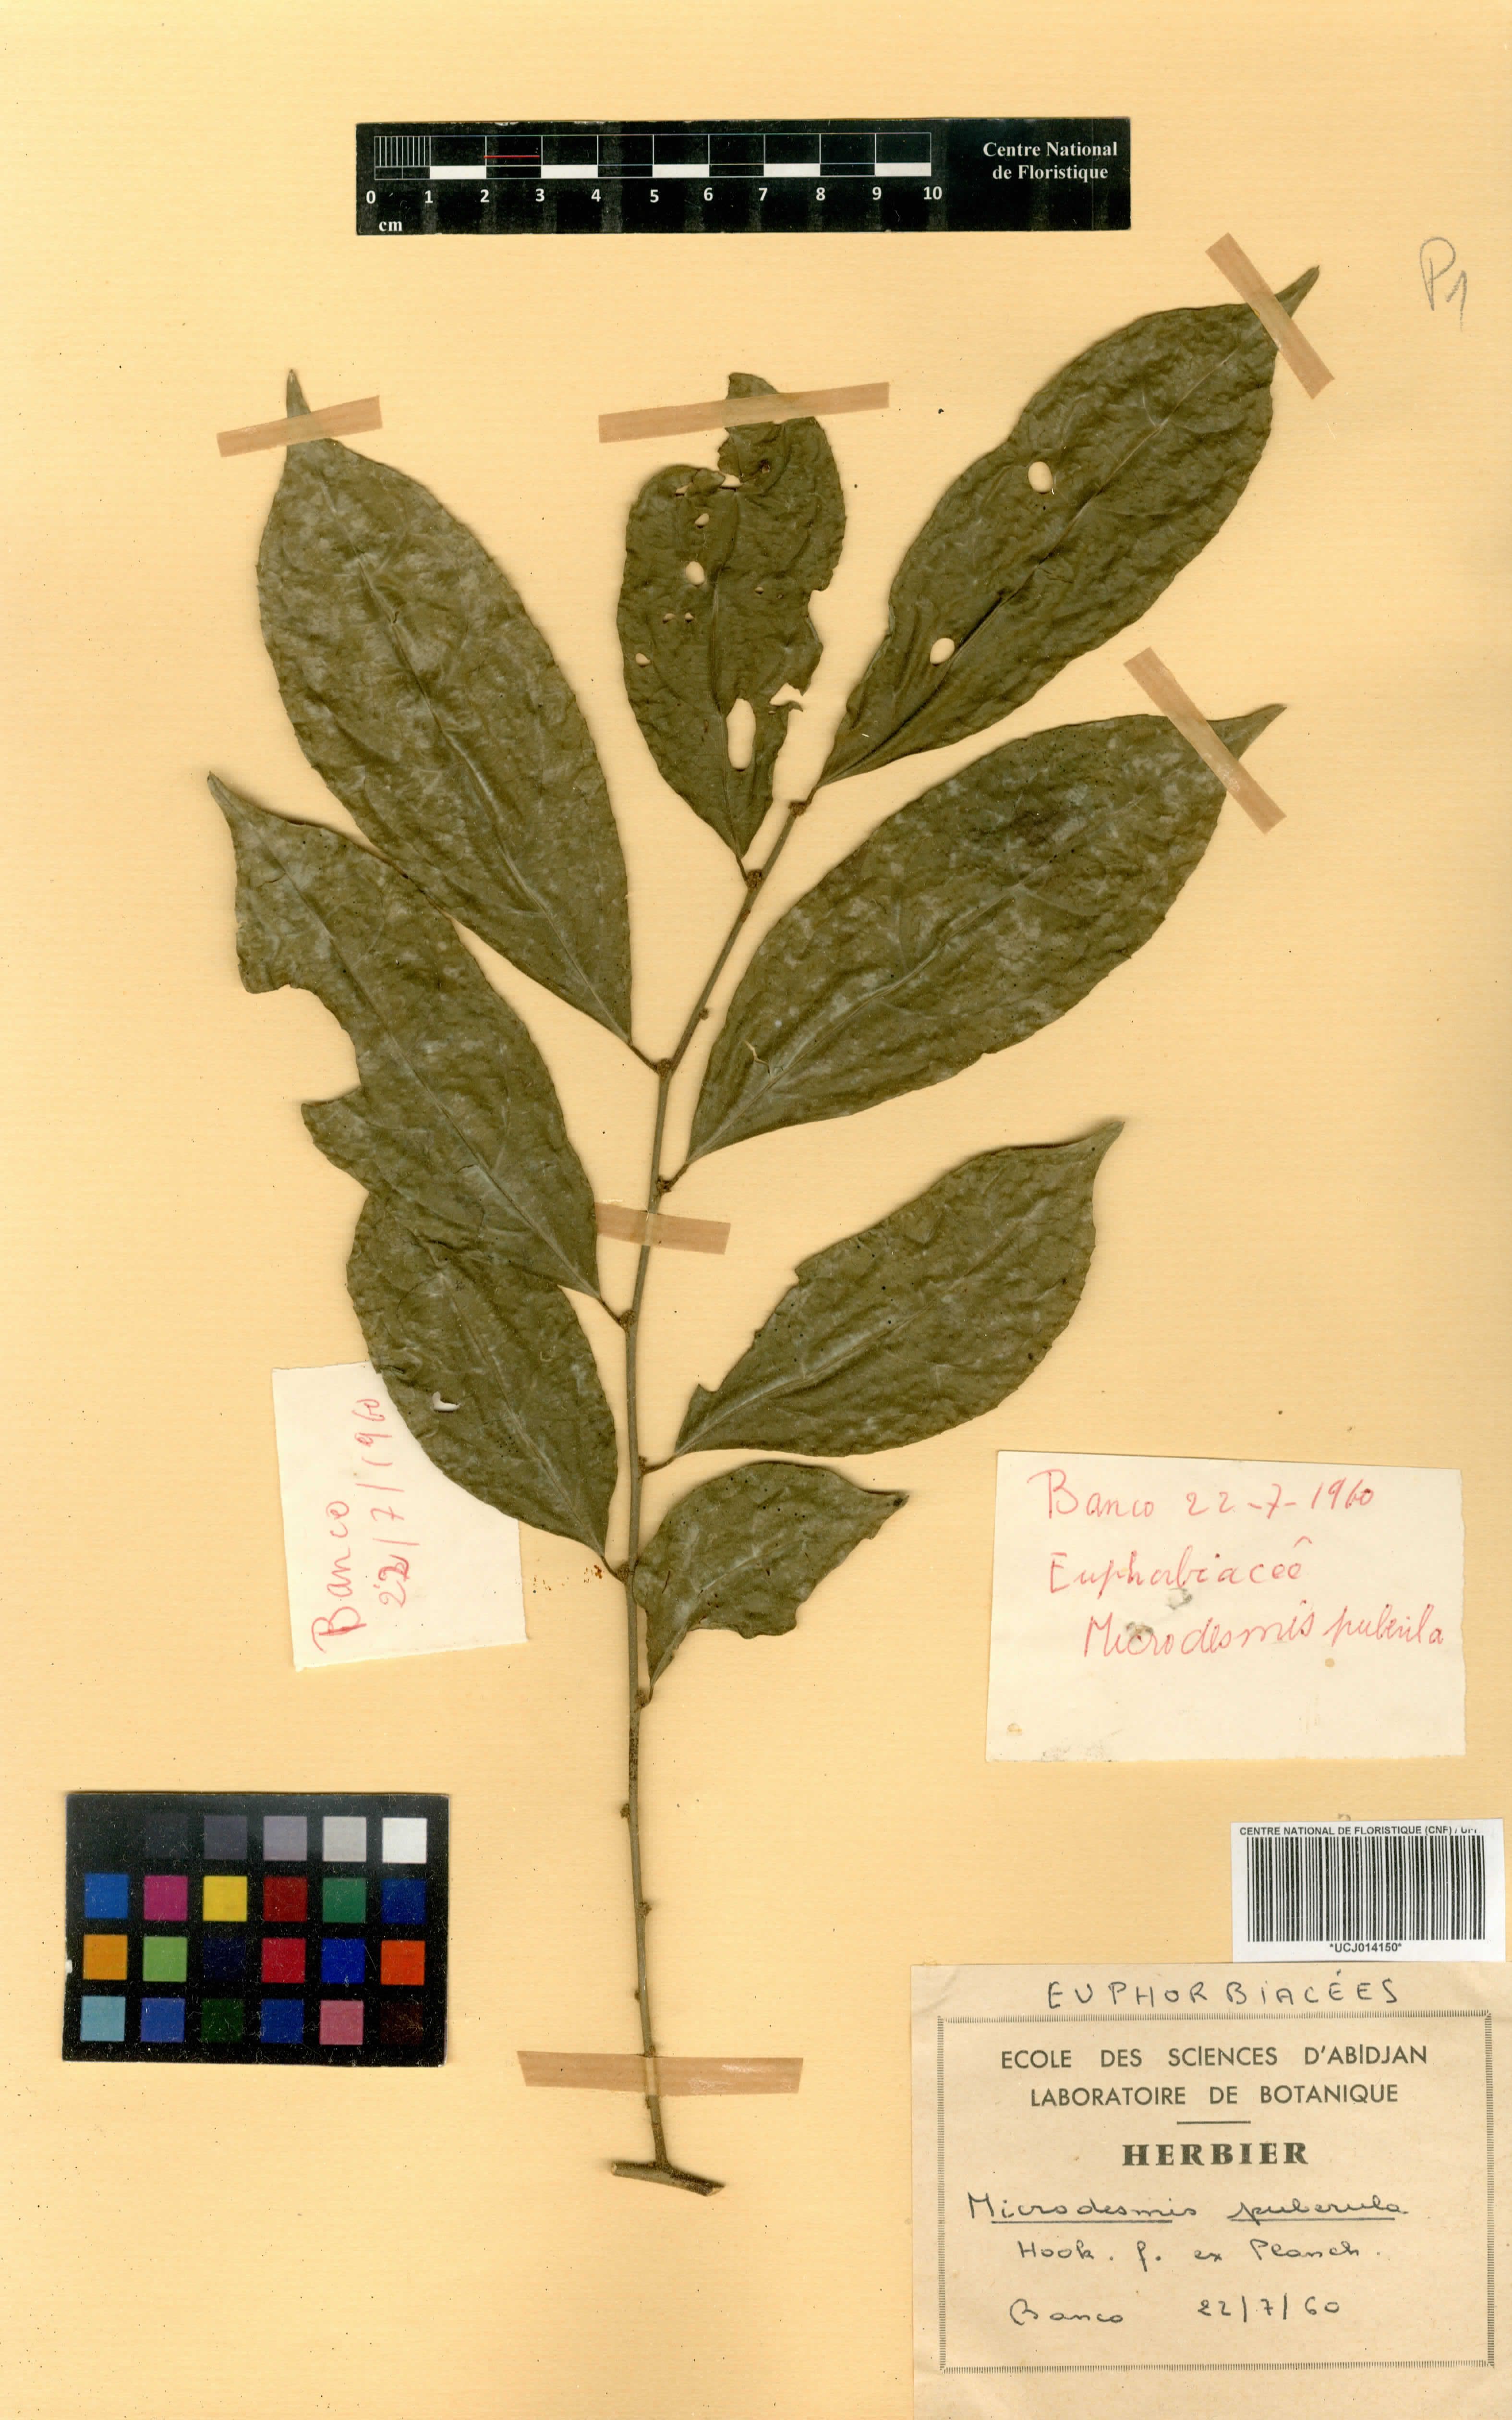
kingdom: Plantae
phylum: Tracheophyta
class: Magnoliopsida
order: Malpighiales
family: Pandaceae
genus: Microdesmis
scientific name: Microdesmis puberula
